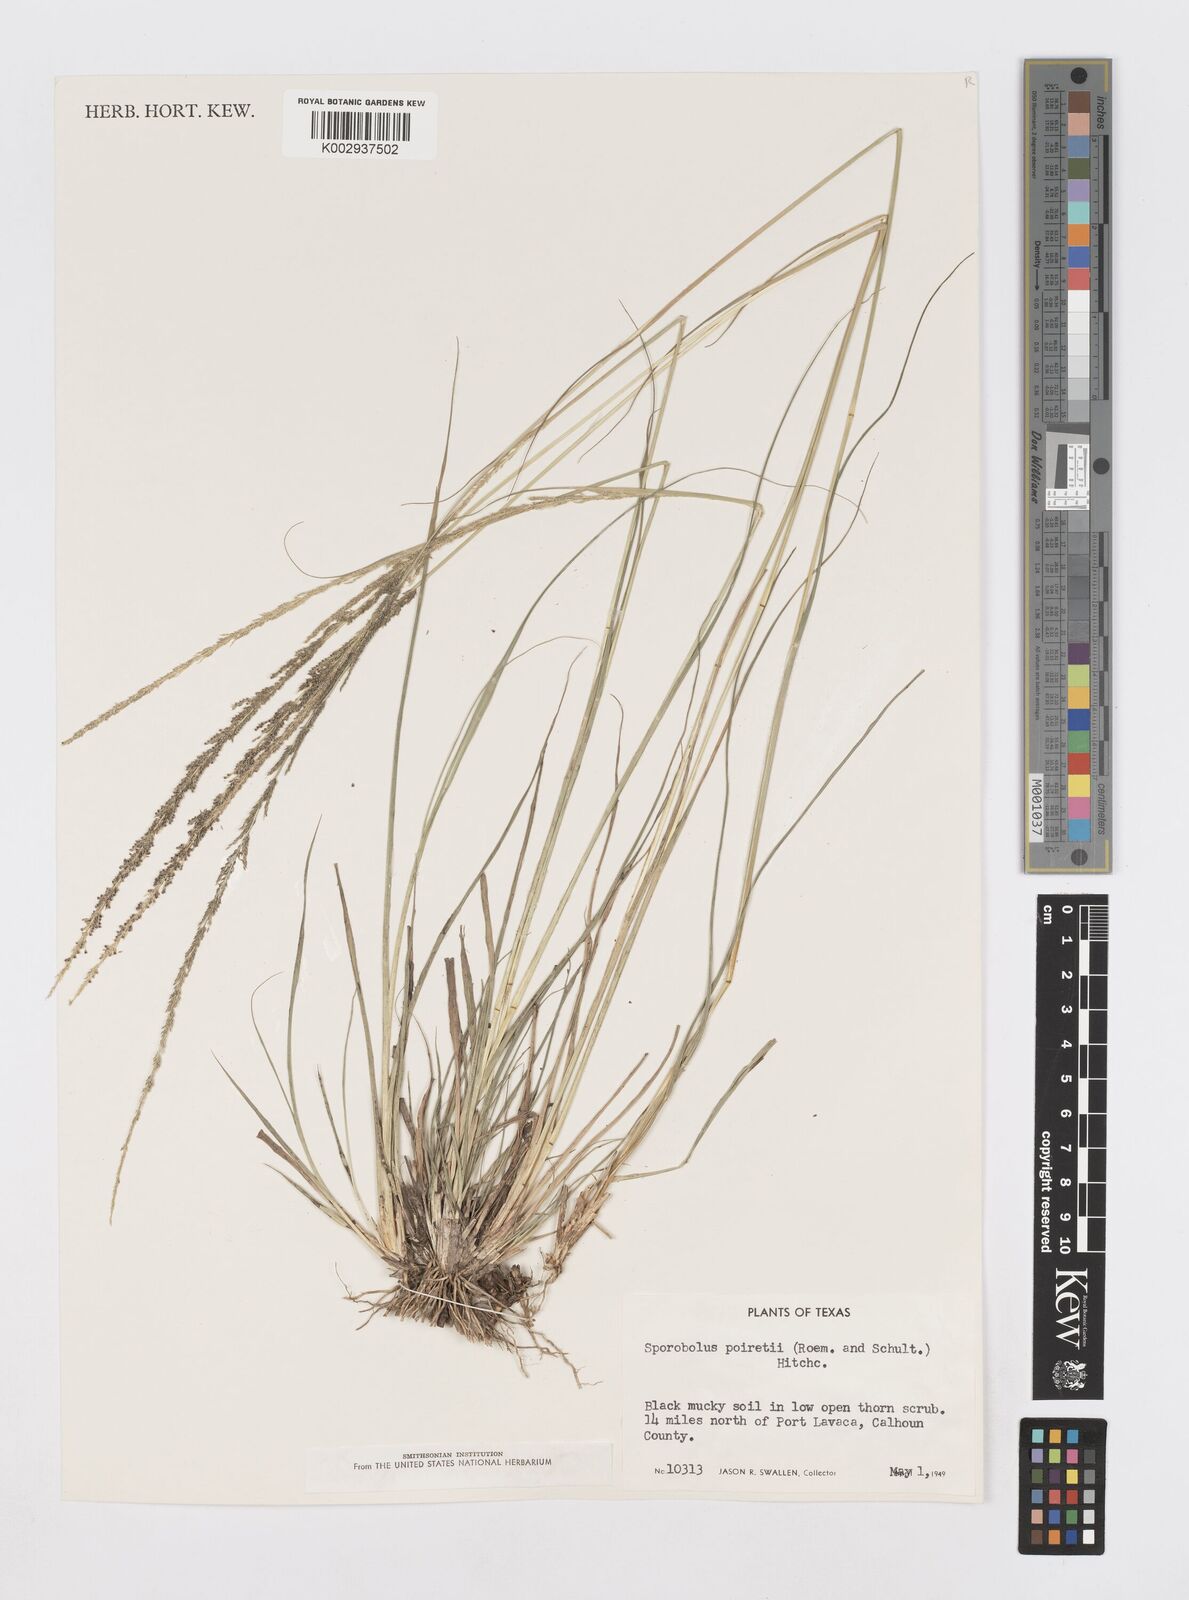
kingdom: Plantae
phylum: Tracheophyta
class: Liliopsida
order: Poales
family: Poaceae
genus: Sporobolus
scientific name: Sporobolus junceus
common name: Lizard grass
